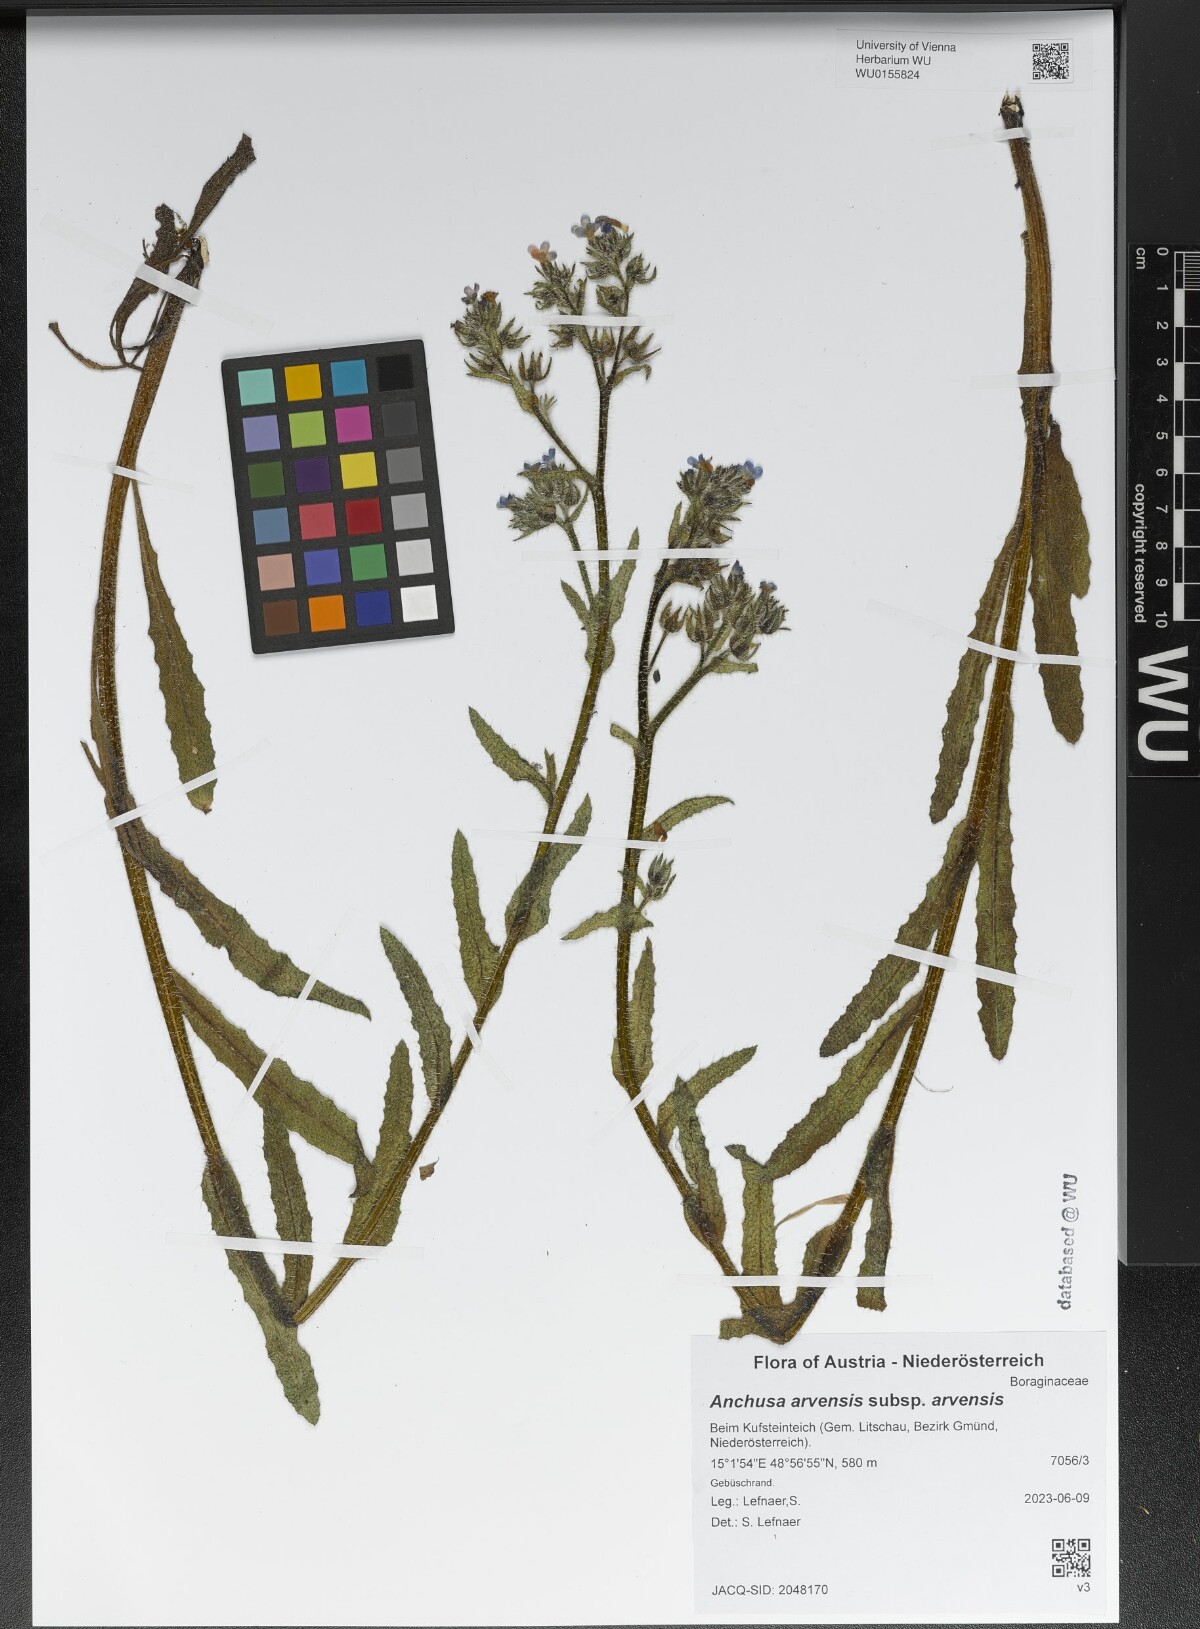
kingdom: Plantae
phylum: Tracheophyta
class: Magnoliopsida
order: Boraginales
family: Boraginaceae
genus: Lycopsis
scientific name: Lycopsis arvensis
